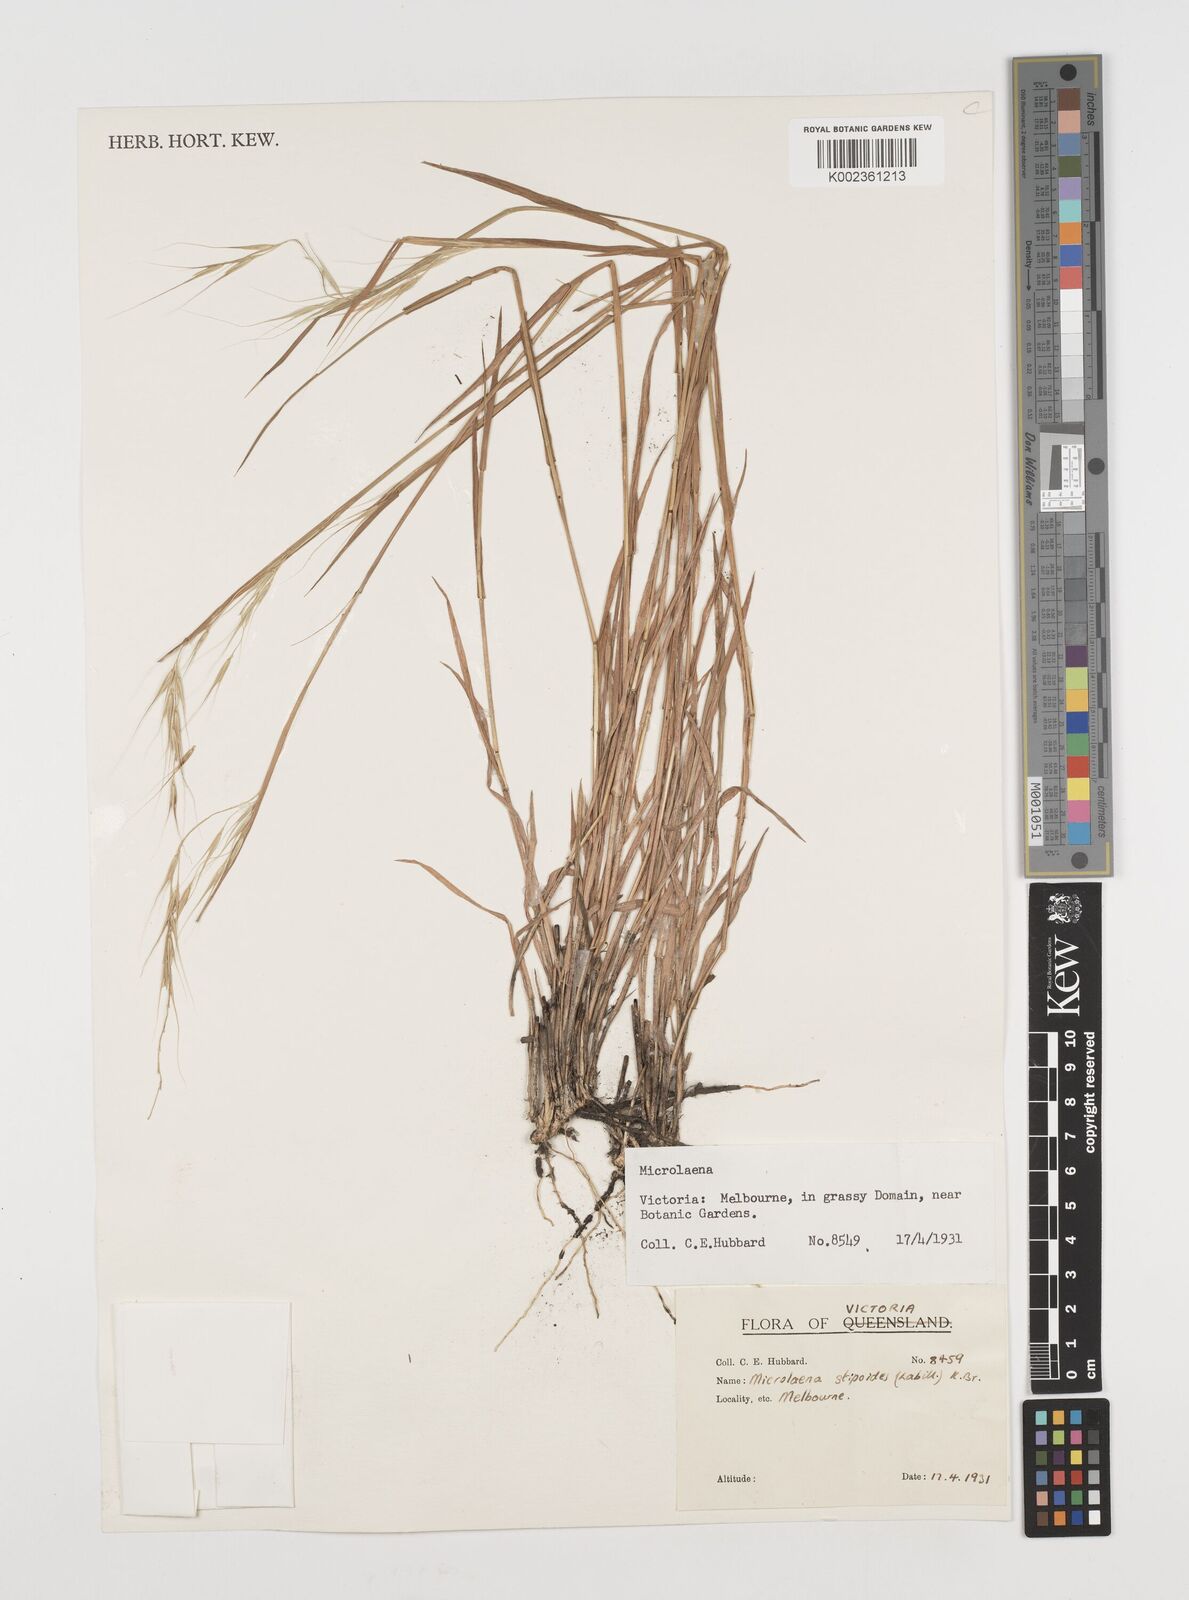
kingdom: Plantae
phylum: Tracheophyta
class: Liliopsida
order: Poales
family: Poaceae
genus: Microlaena
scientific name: Microlaena stipoides
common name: Meadow ricegrass
